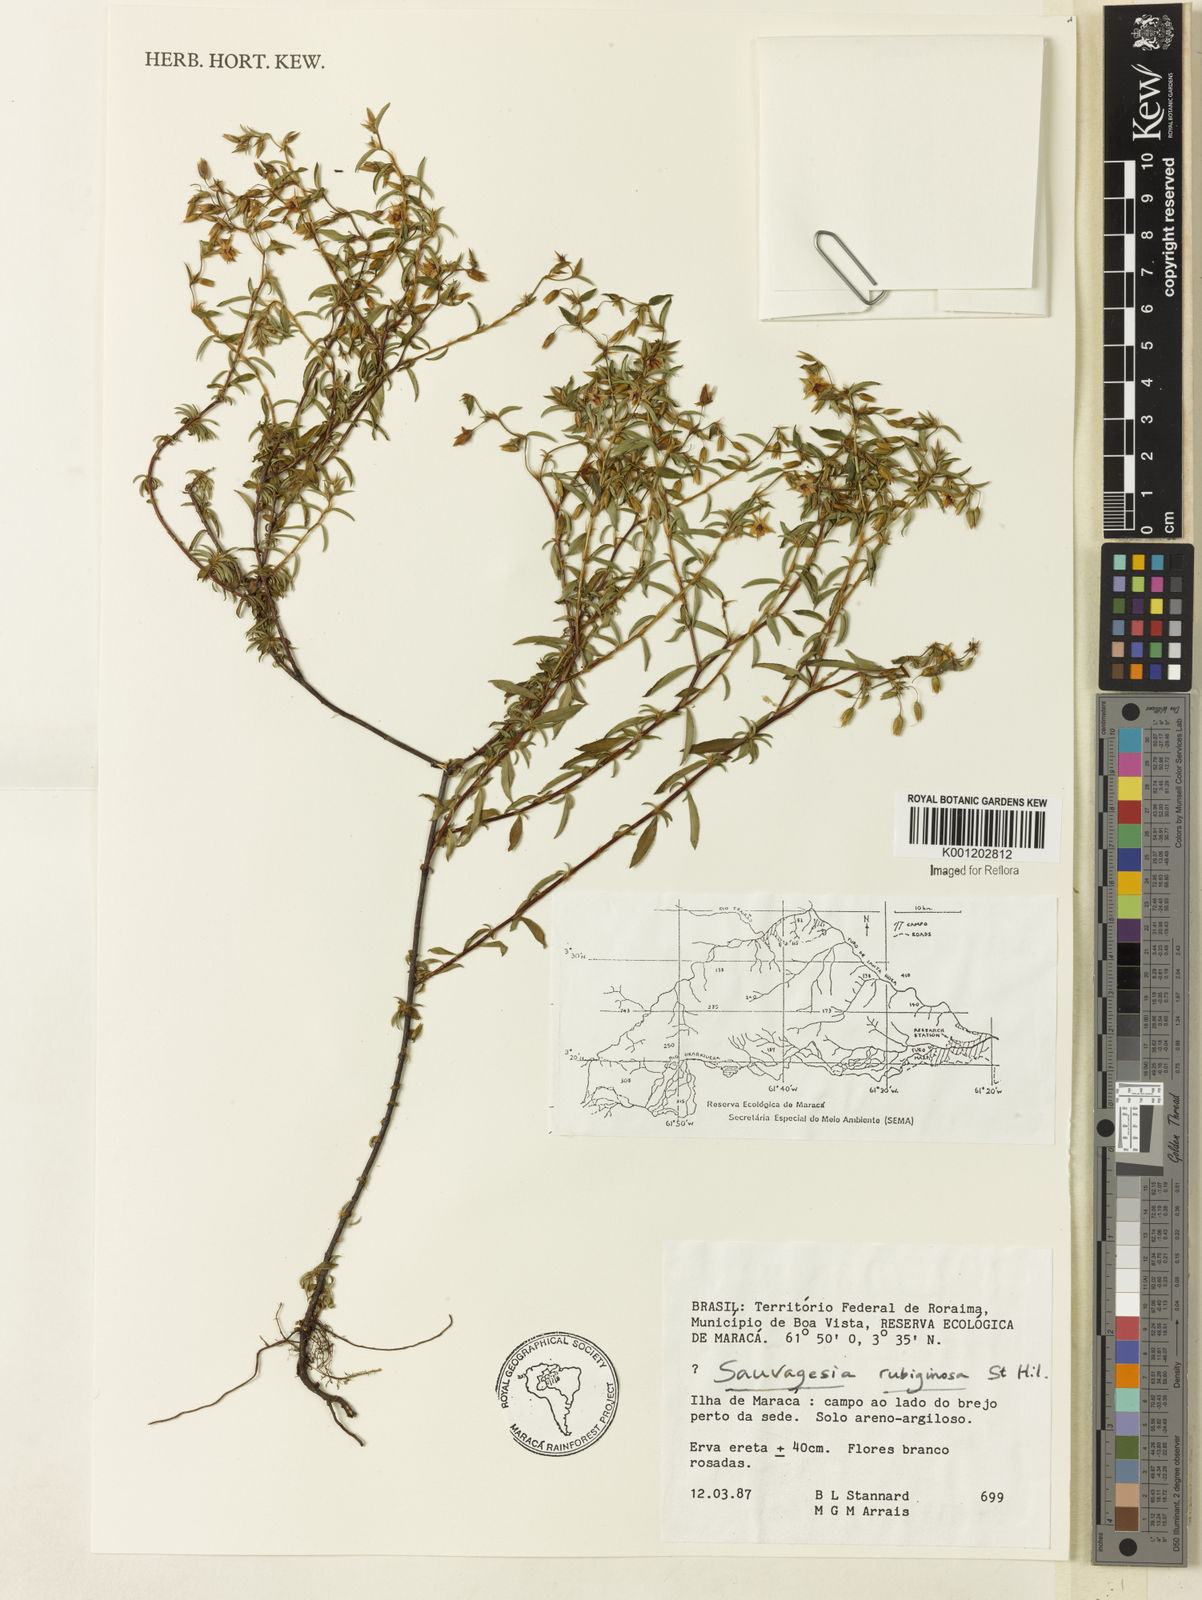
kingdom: Plantae
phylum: Tracheophyta
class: Magnoliopsida
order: Malpighiales
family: Ochnaceae
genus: Sauvagesia
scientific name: Sauvagesia rubiginosa
